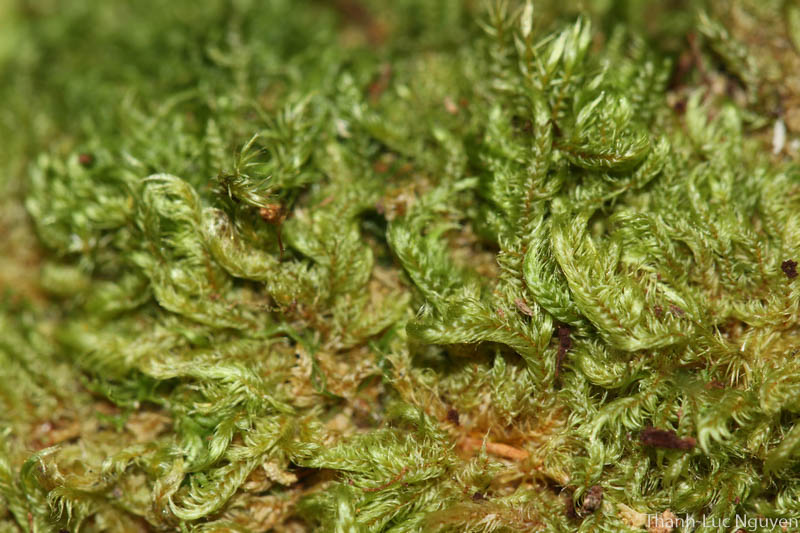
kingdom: Plantae
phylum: Bryophyta
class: Bryopsida
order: Hypnales
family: Sematophyllaceae
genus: Radulina
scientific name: Radulina borbonica
